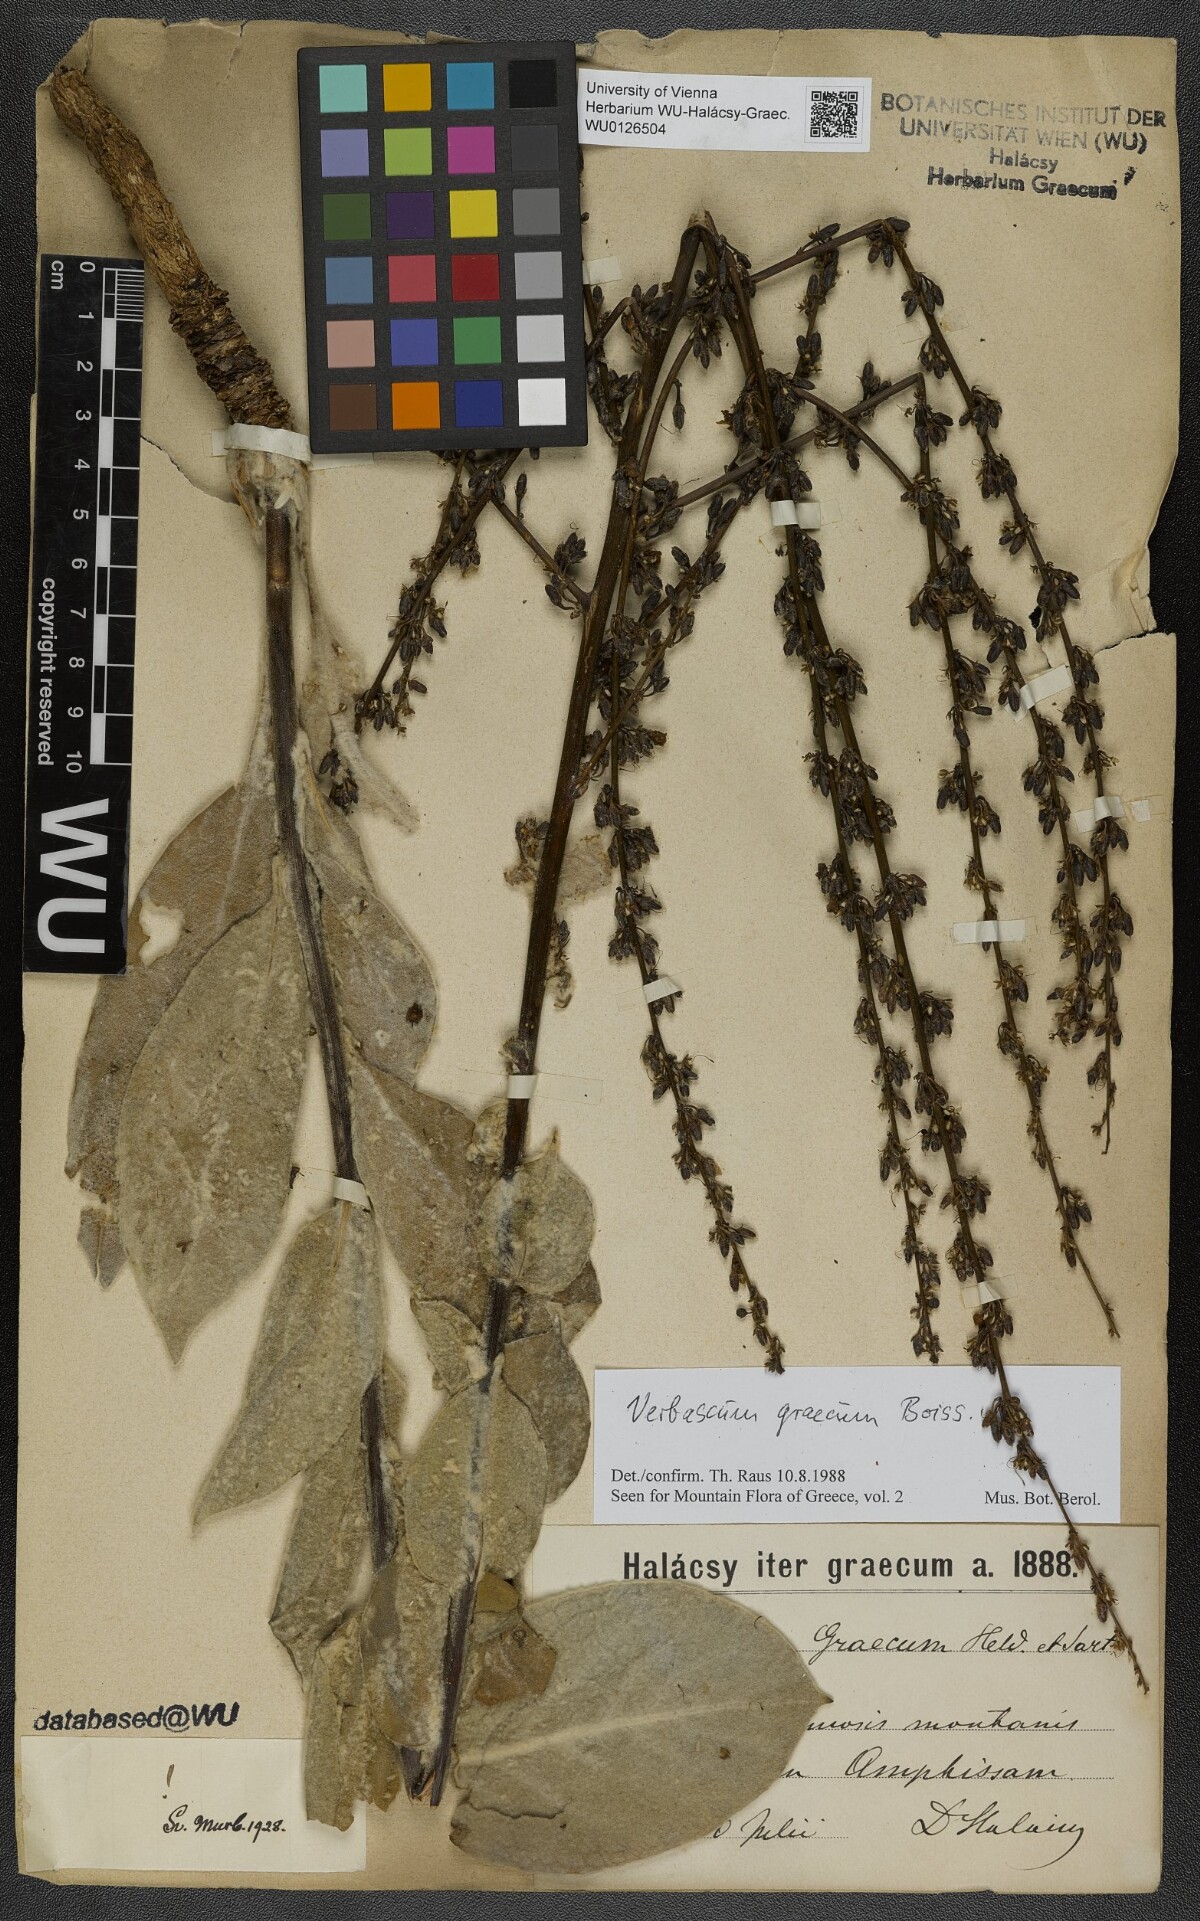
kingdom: Plantae
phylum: Tracheophyta
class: Magnoliopsida
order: Lamiales
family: Scrophulariaceae
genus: Verbascum
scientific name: Verbascum graecum
